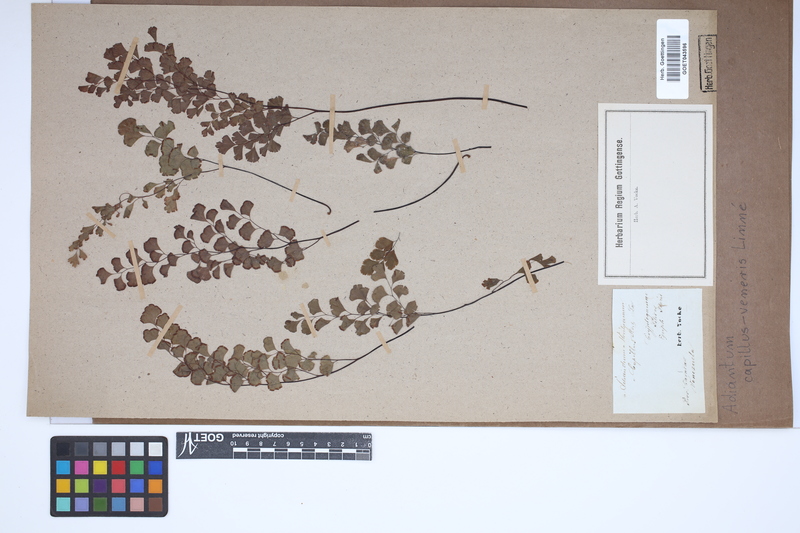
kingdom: Plantae
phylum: Tracheophyta
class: Polypodiopsida
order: Polypodiales
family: Pteridaceae
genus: Adiantum
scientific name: Adiantum capillus-veneris
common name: Maidenhair fern
